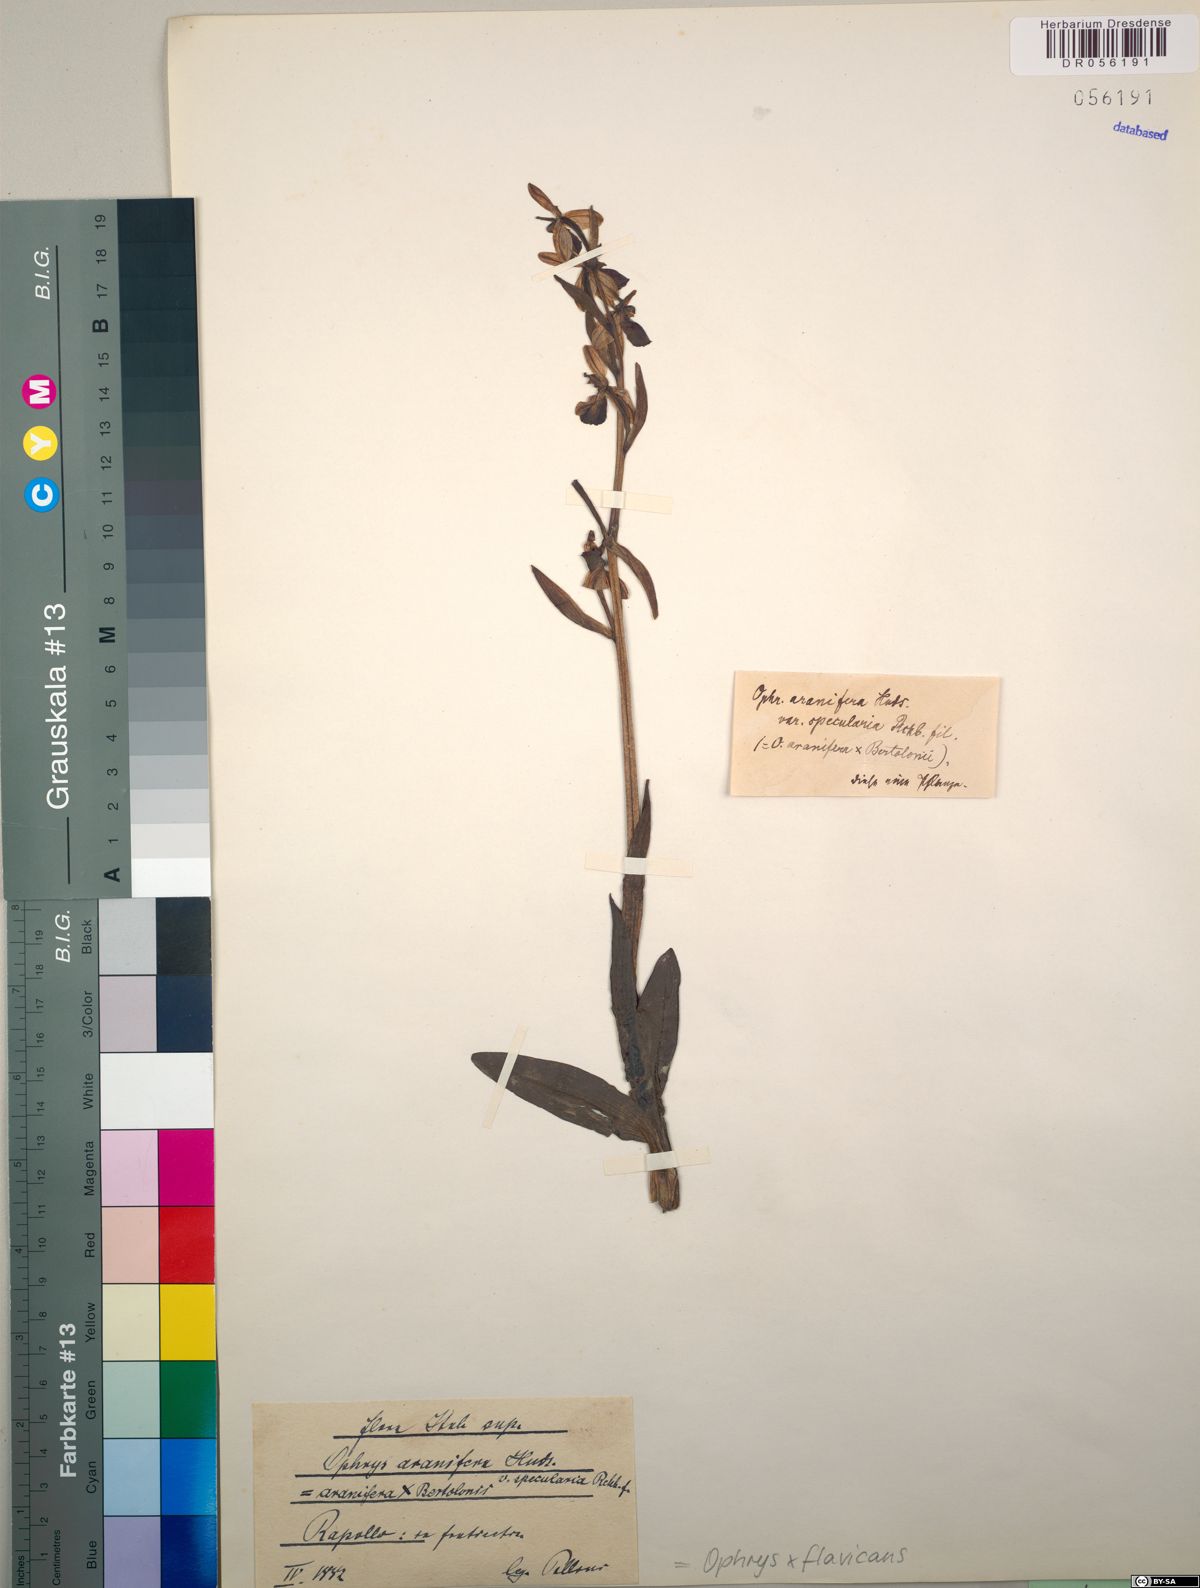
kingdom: Plantae
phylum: Tracheophyta
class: Liliopsida
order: Asparagales
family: Orchidaceae
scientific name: Orchidaceae
